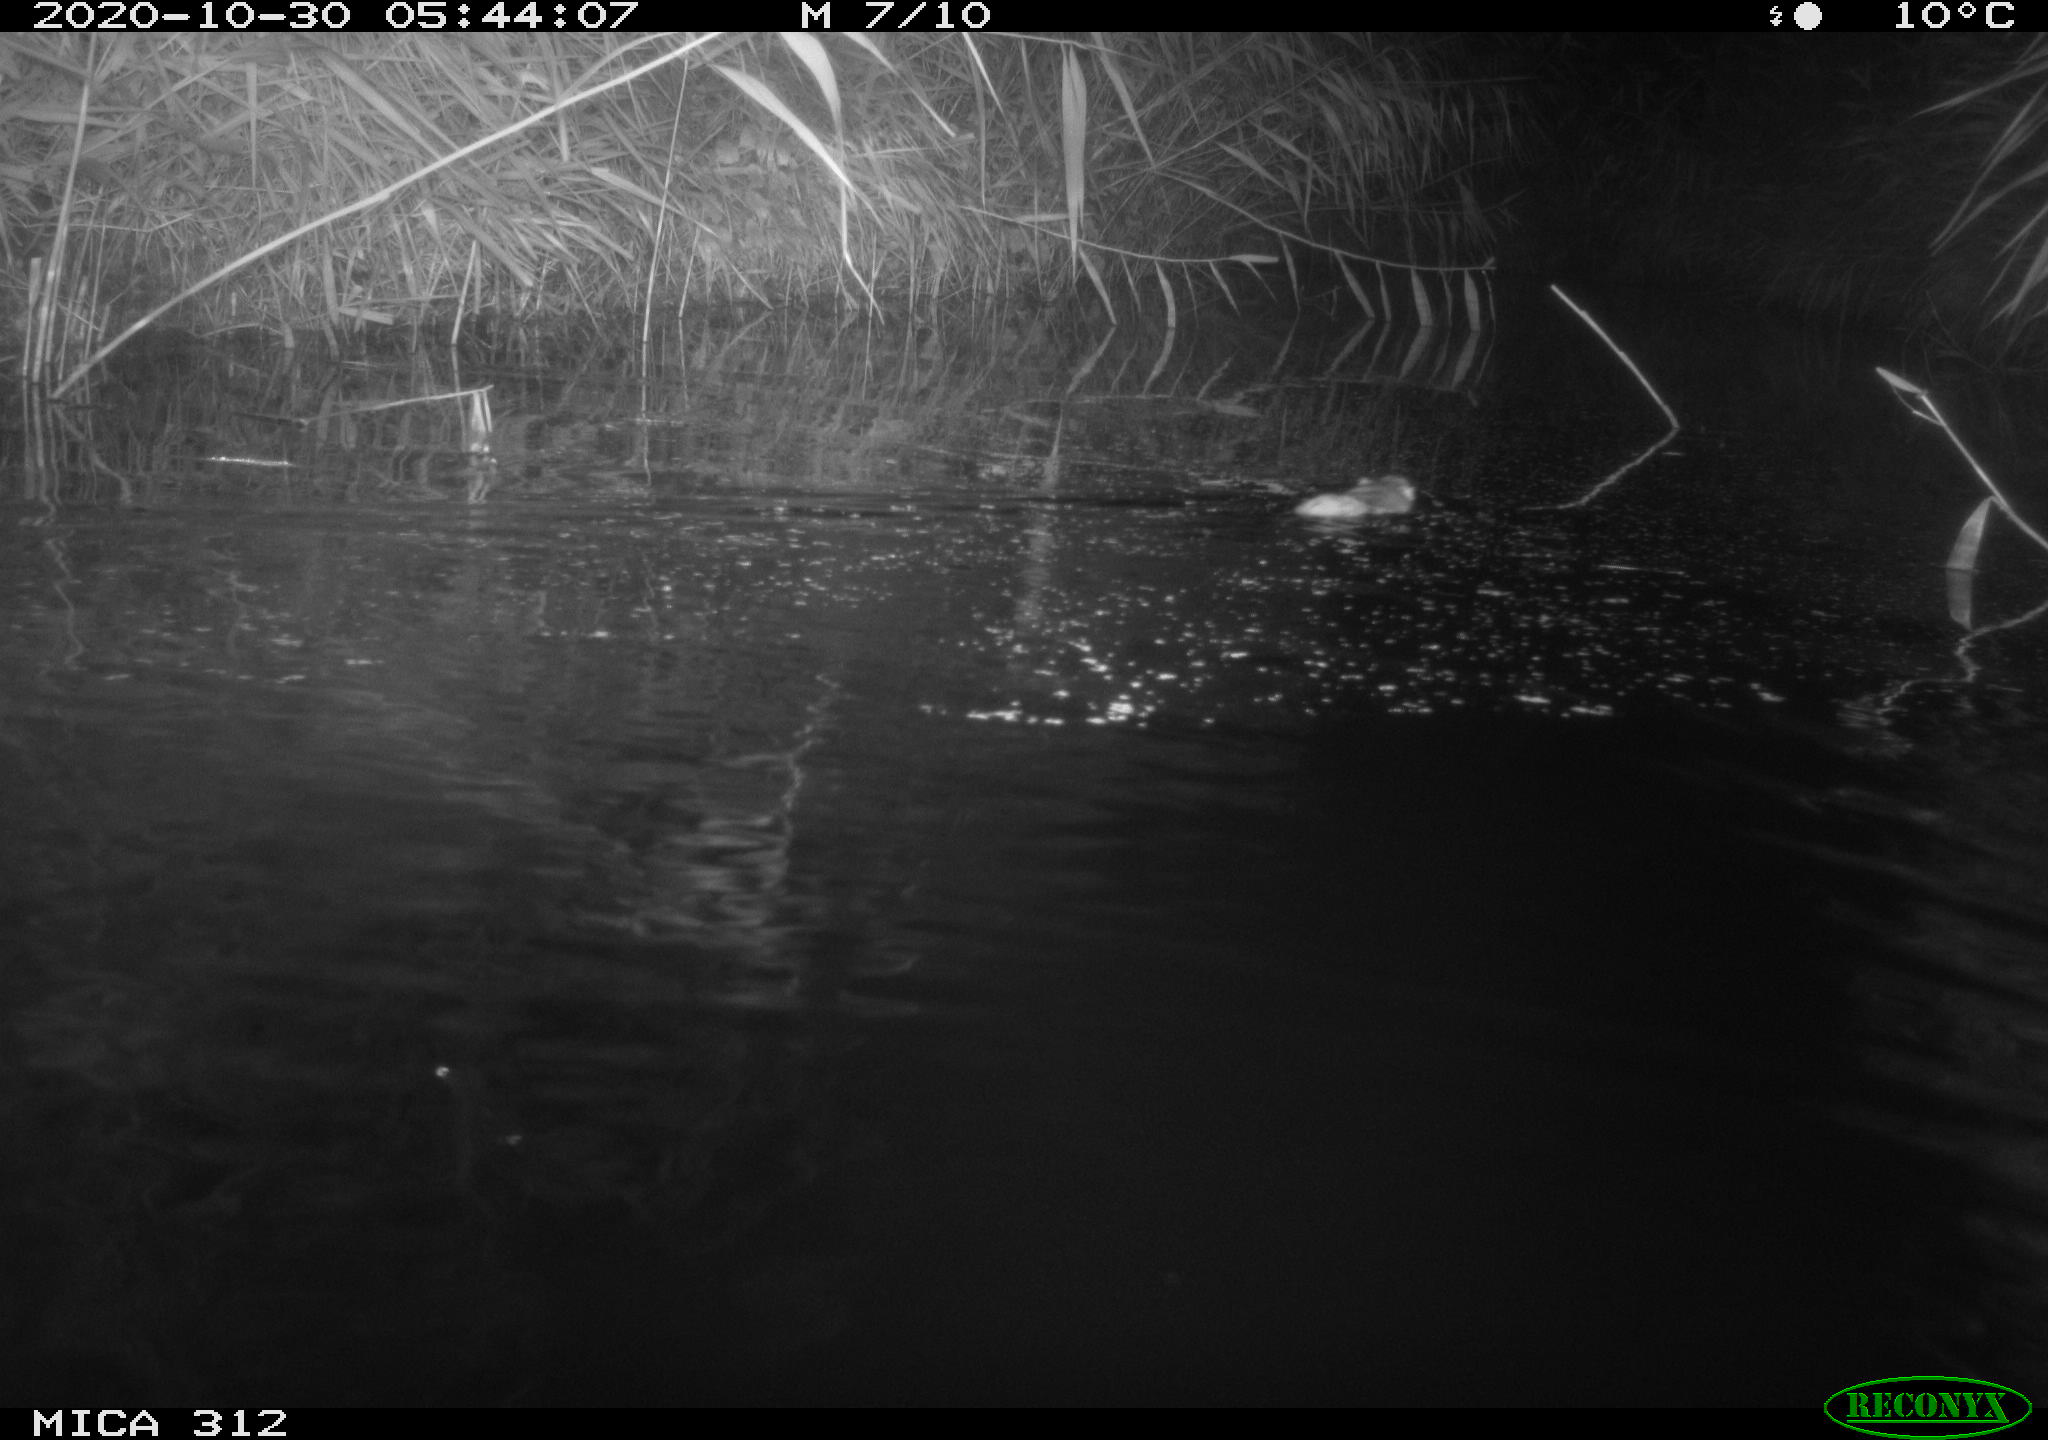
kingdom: Animalia
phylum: Chordata
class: Mammalia
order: Rodentia
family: Muridae
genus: Rattus
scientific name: Rattus norvegicus
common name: Brown rat
